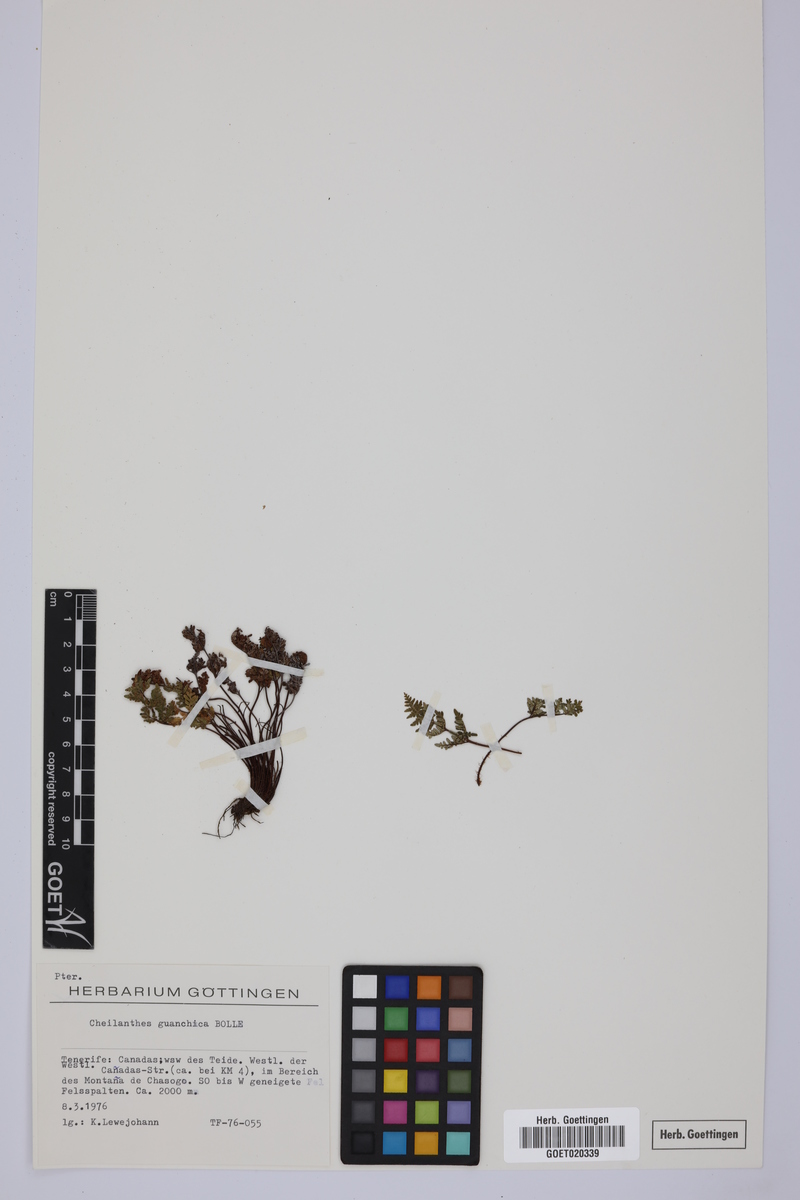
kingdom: Plantae
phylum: Tracheophyta
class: Polypodiopsida
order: Polypodiales
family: Pteridaceae
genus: Oeosporangium
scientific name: Oeosporangium guanchicum
